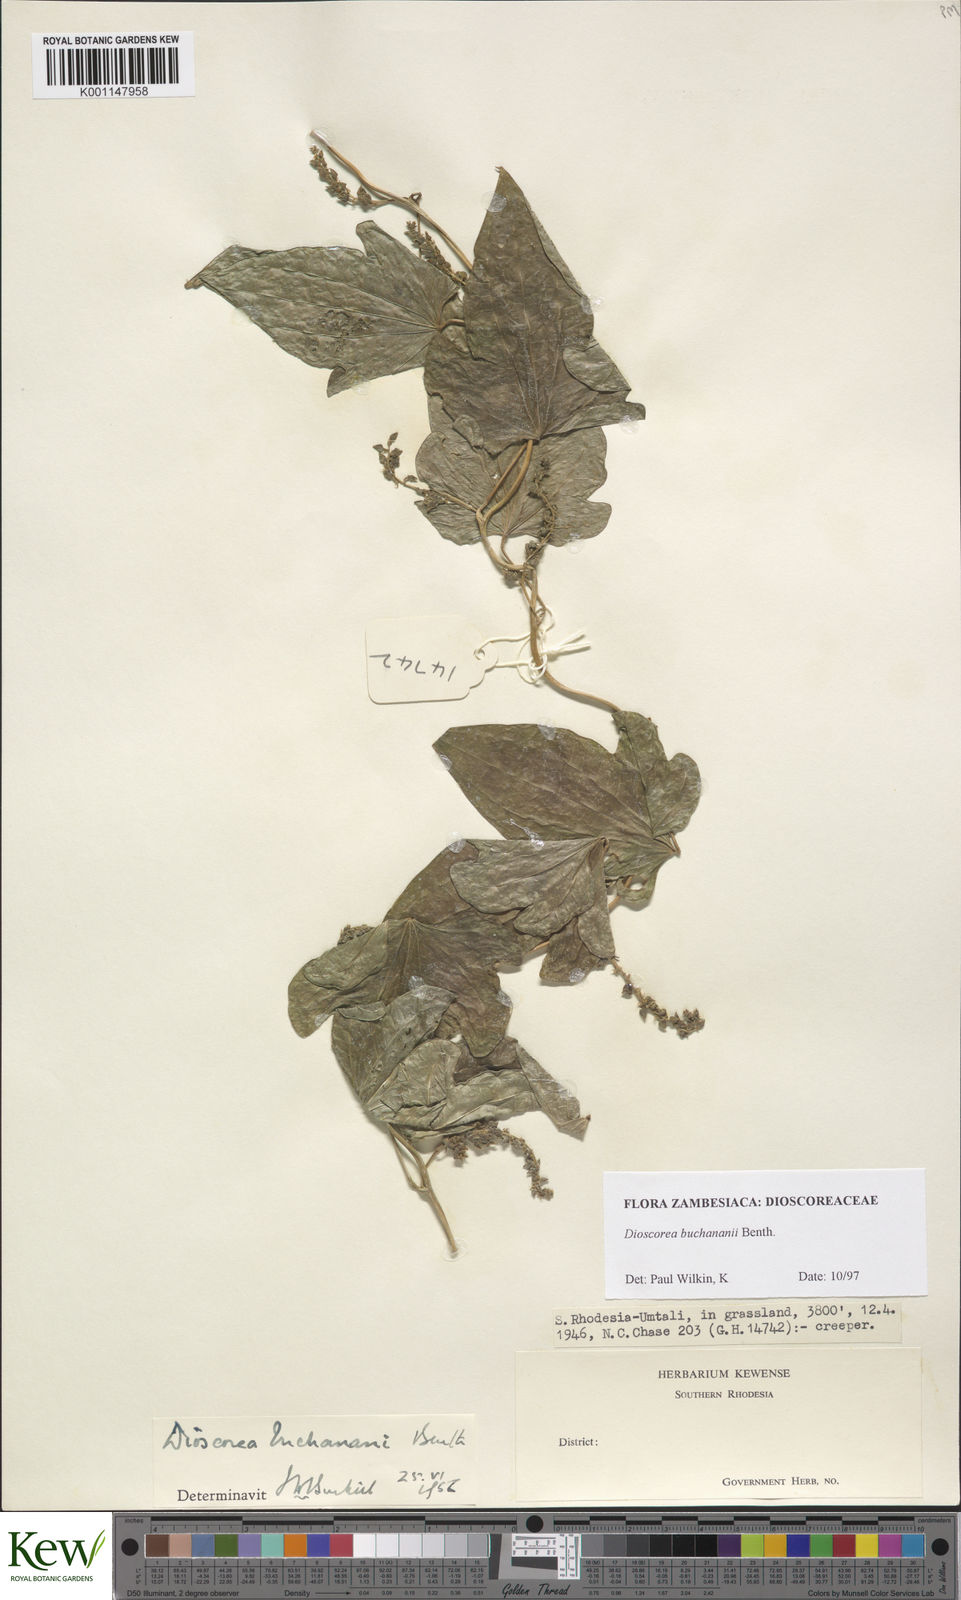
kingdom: Plantae
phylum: Tracheophyta
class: Liliopsida
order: Dioscoreales
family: Dioscoreaceae
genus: Dioscorea
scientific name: Dioscorea buchananii
